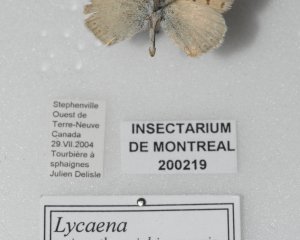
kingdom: Animalia
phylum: Arthropoda
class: Insecta
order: Lepidoptera
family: Sesiidae
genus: Sesia
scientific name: Sesia Lycaena epixanthe
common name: Bog Copper
